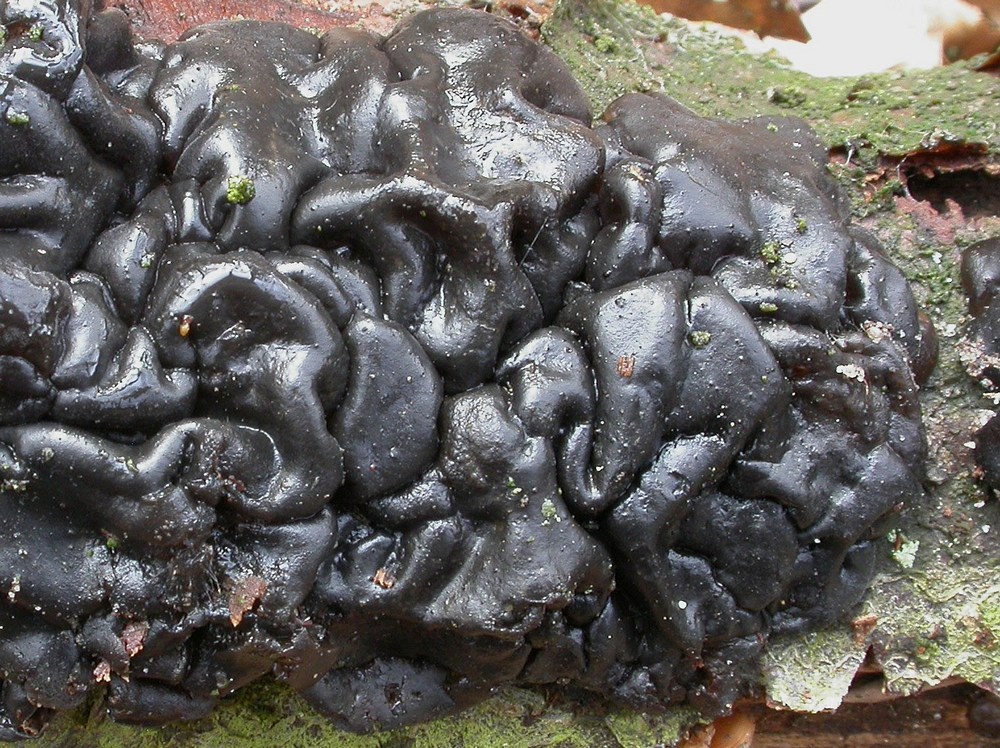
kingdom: Fungi
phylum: Basidiomycota
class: Agaricomycetes
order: Auriculariales
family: Auriculariaceae
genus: Exidia
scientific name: Exidia nigricans
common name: almindelig bævretop
